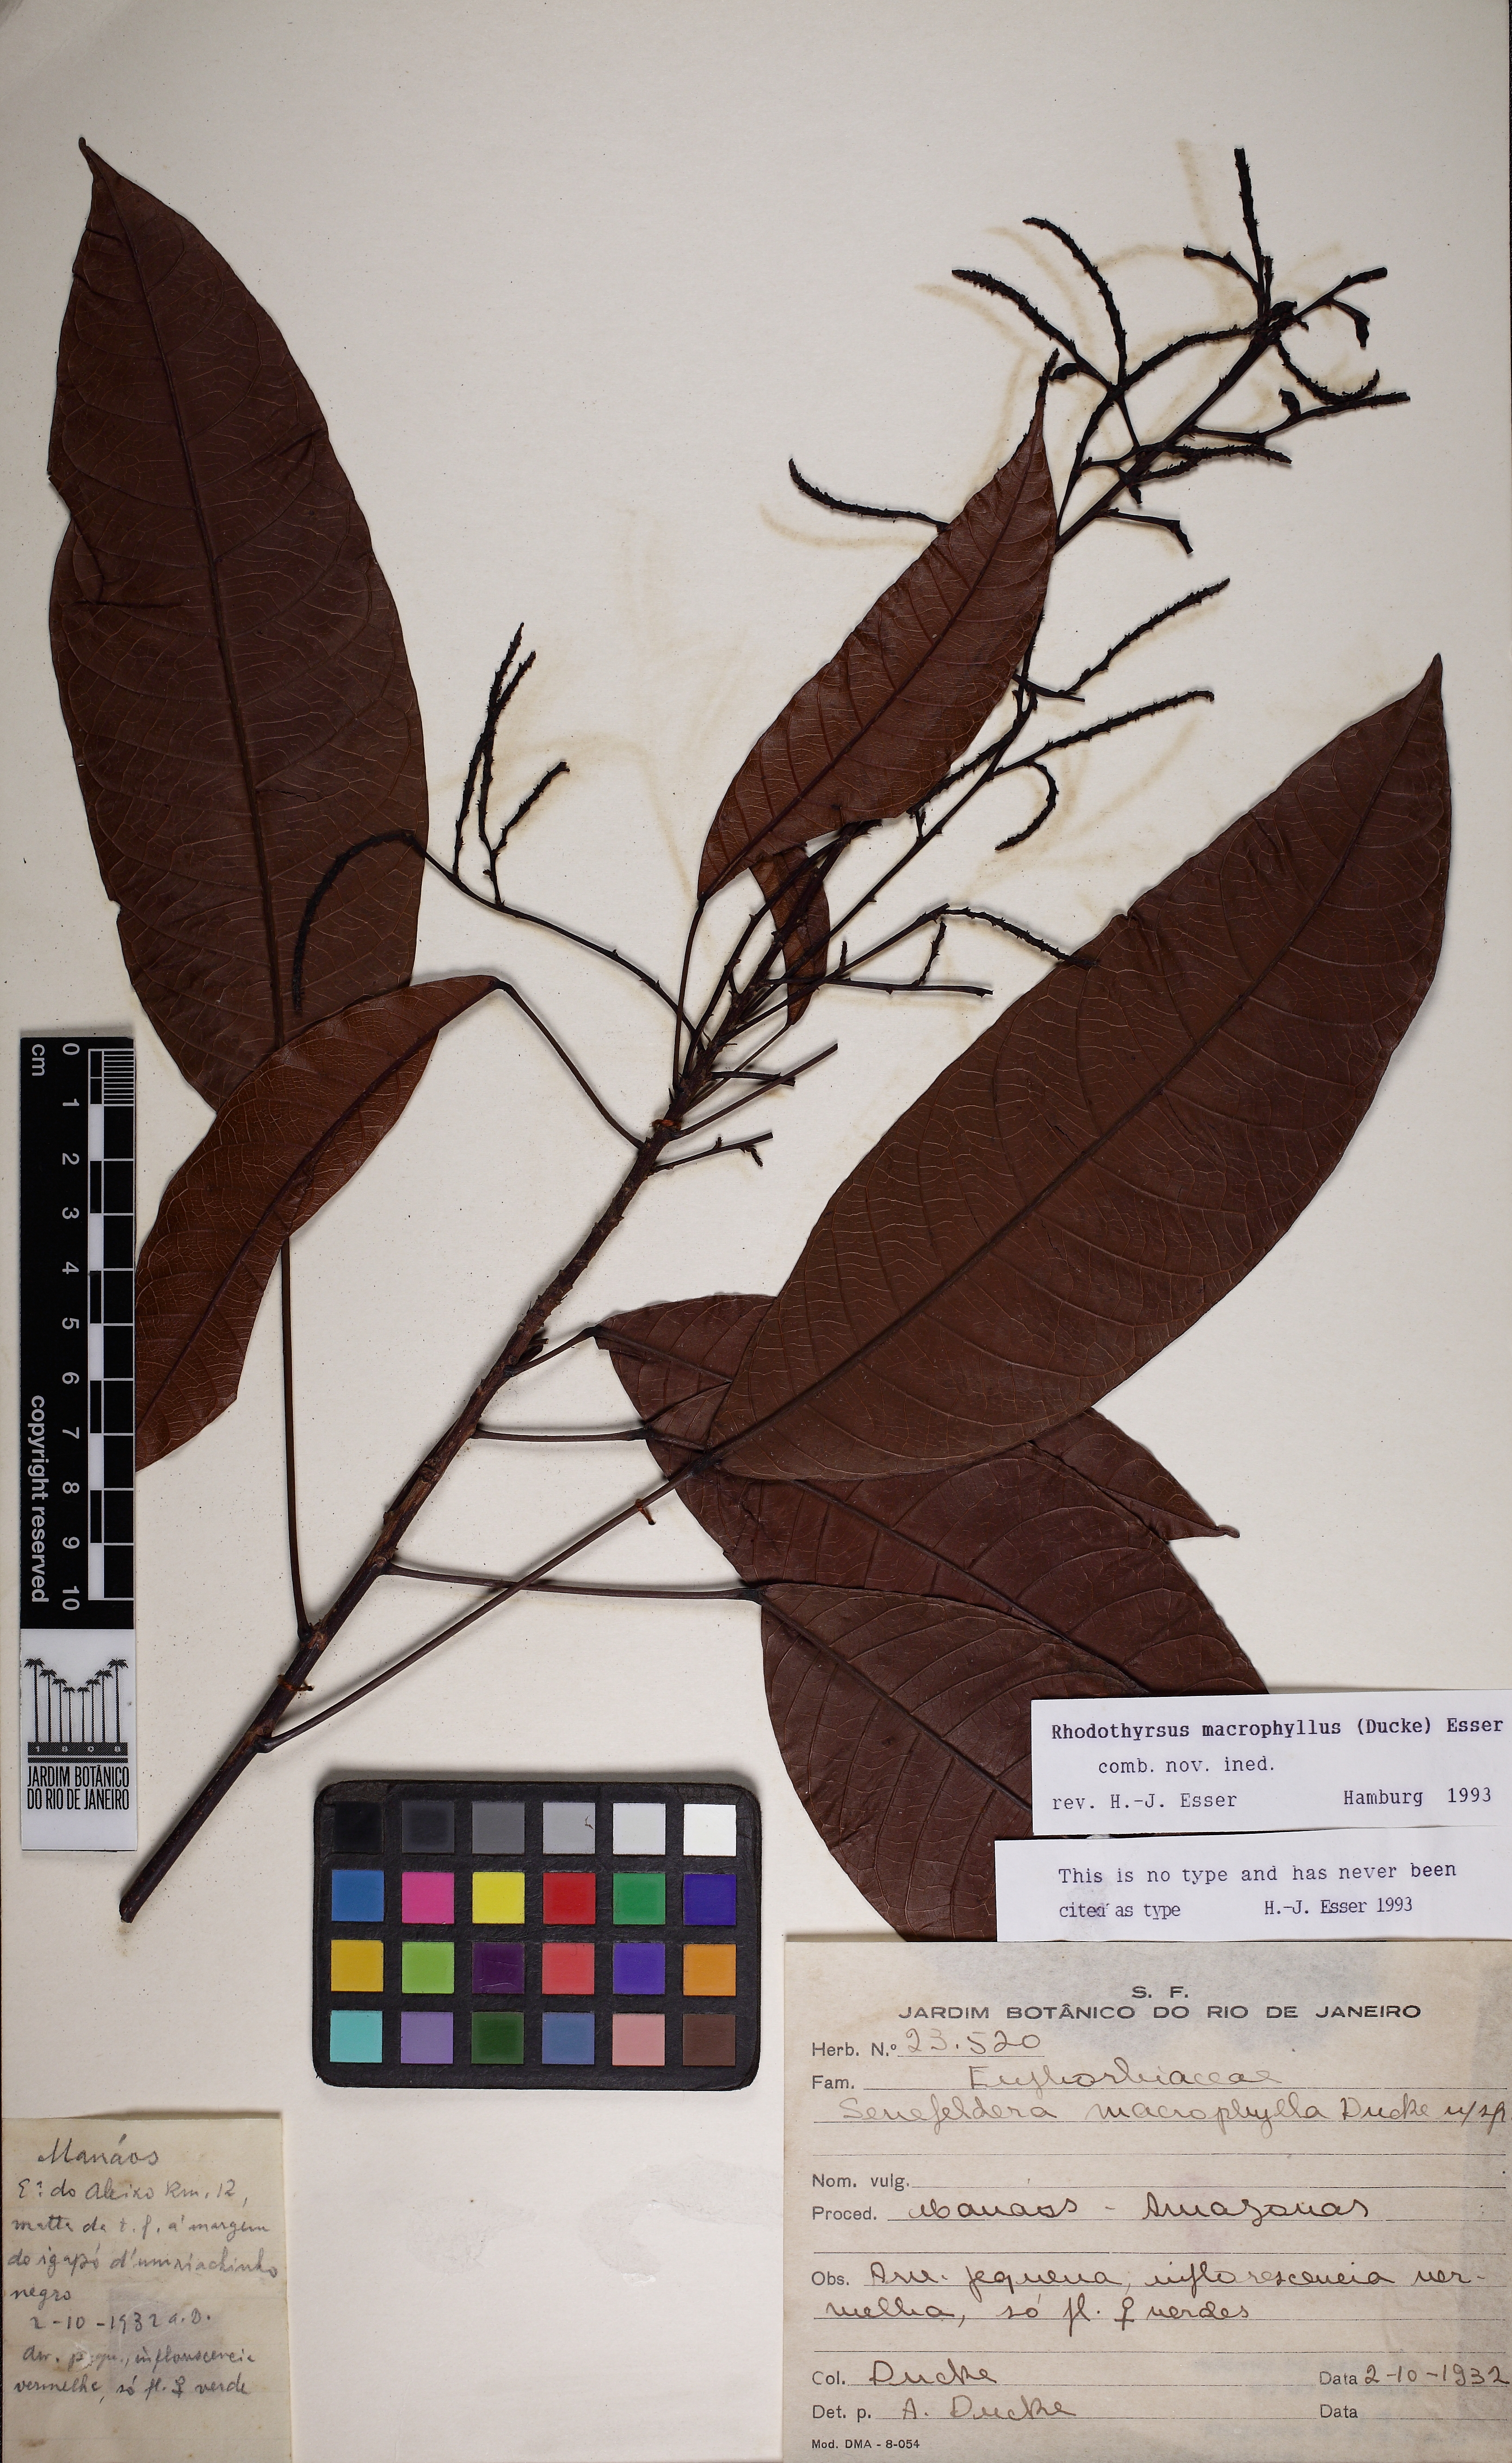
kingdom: Plantae
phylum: Tracheophyta
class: Magnoliopsida
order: Malpighiales
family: Euphorbiaceae
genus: Rhodothyrsus
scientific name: Rhodothyrsus macrophyllus
